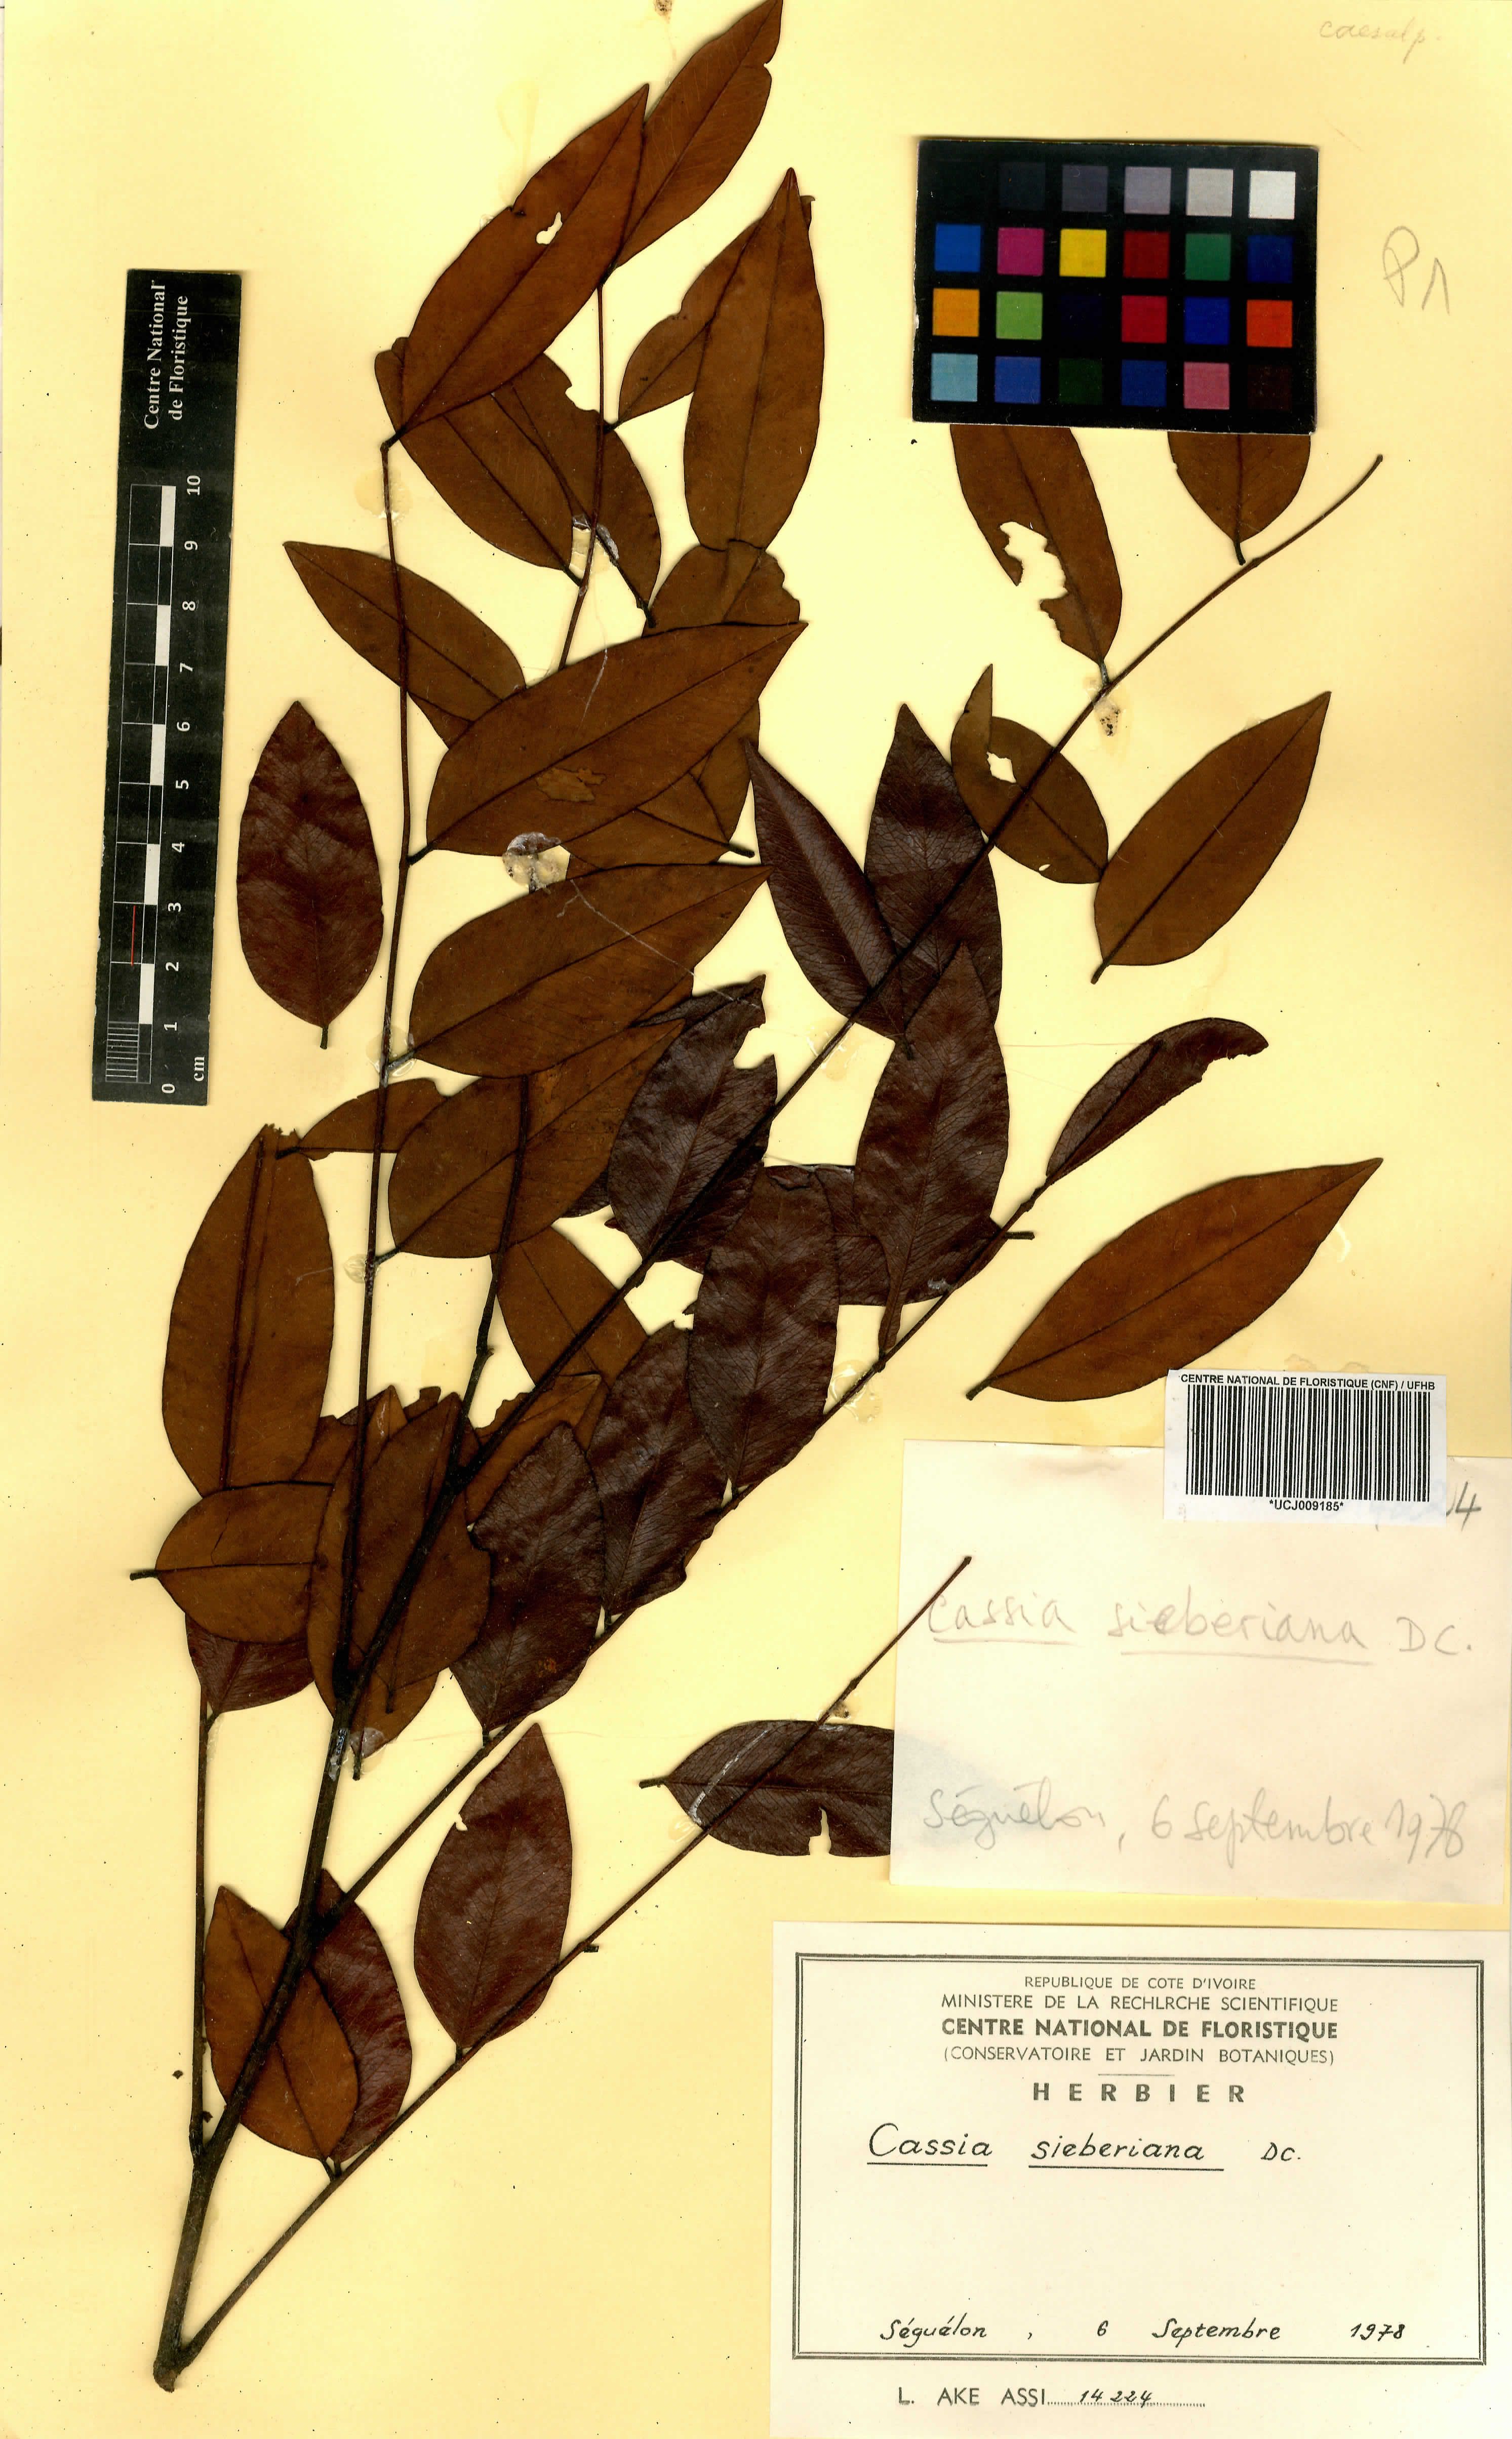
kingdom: Plantae
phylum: Tracheophyta
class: Magnoliopsida
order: Fabales
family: Fabaceae
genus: Cassia
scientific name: Cassia sieberiana
